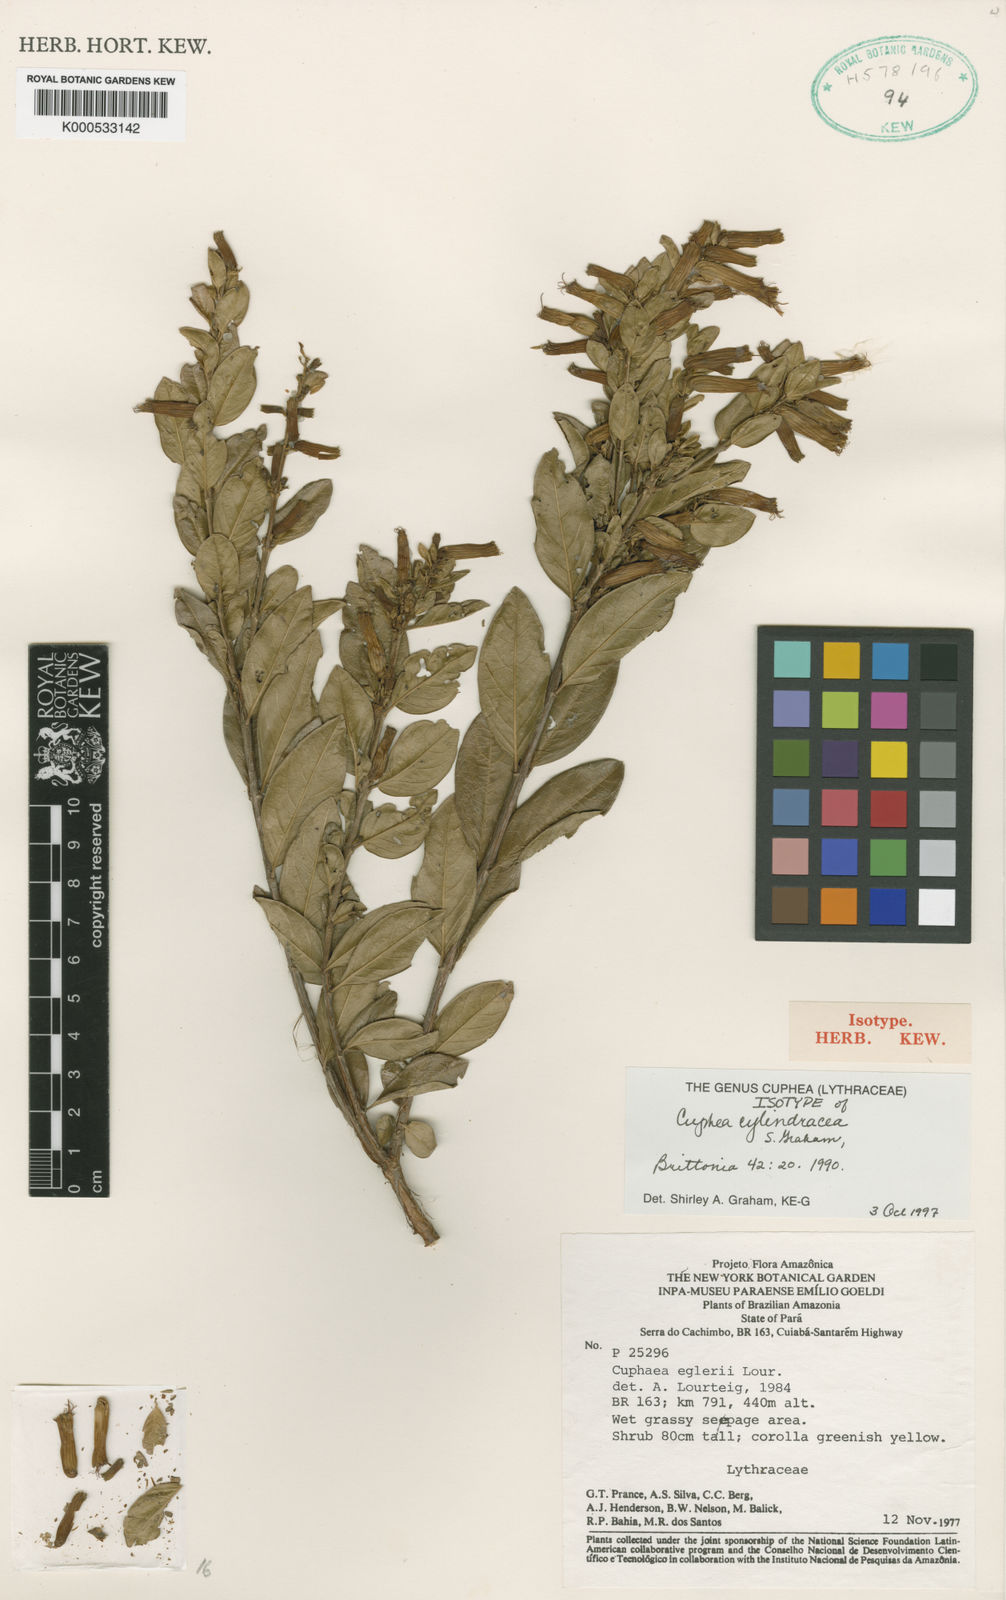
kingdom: Plantae
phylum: Tracheophyta
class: Magnoliopsida
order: Myrtales
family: Lythraceae
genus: Cuphea
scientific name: Cuphea cylindracea
